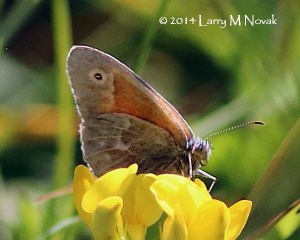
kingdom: Animalia
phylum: Arthropoda
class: Insecta
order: Lepidoptera
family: Nymphalidae
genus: Coenonympha
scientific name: Coenonympha tullia
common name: Large Heath
